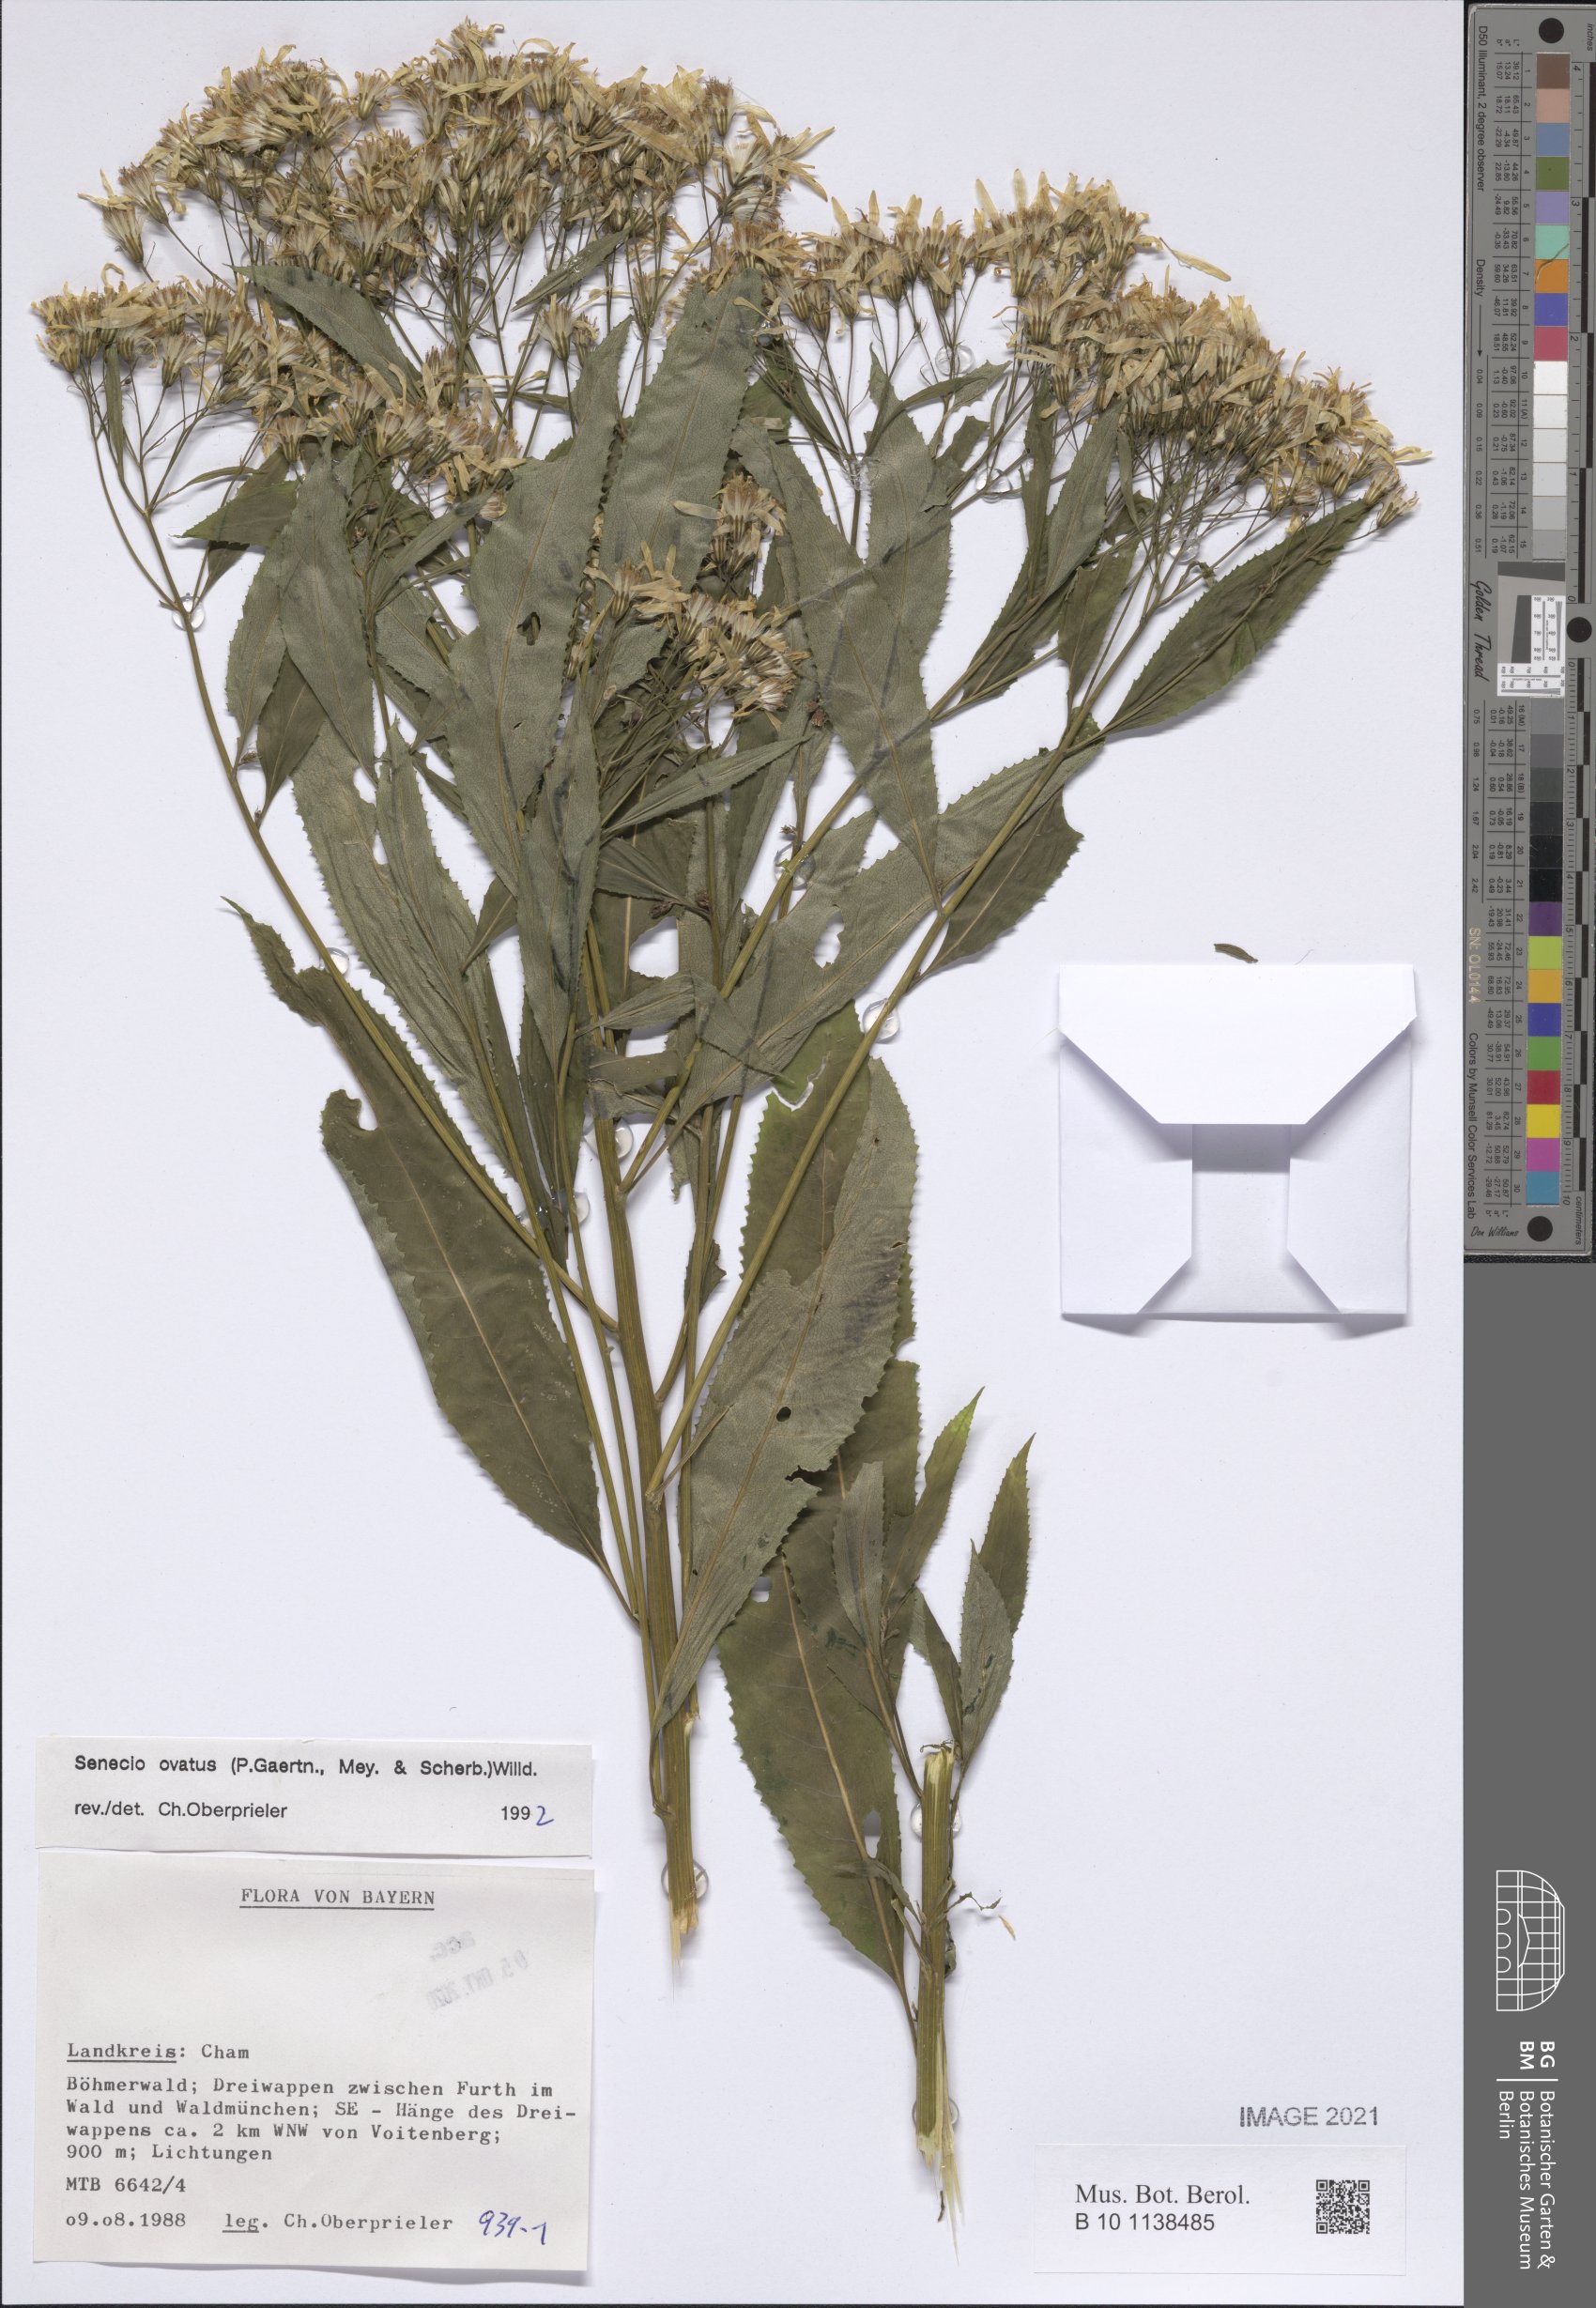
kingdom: Plantae
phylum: Tracheophyta
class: Magnoliopsida
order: Asterales
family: Asteraceae
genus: Senecio
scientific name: Senecio ovatus
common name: Wood ragwort
